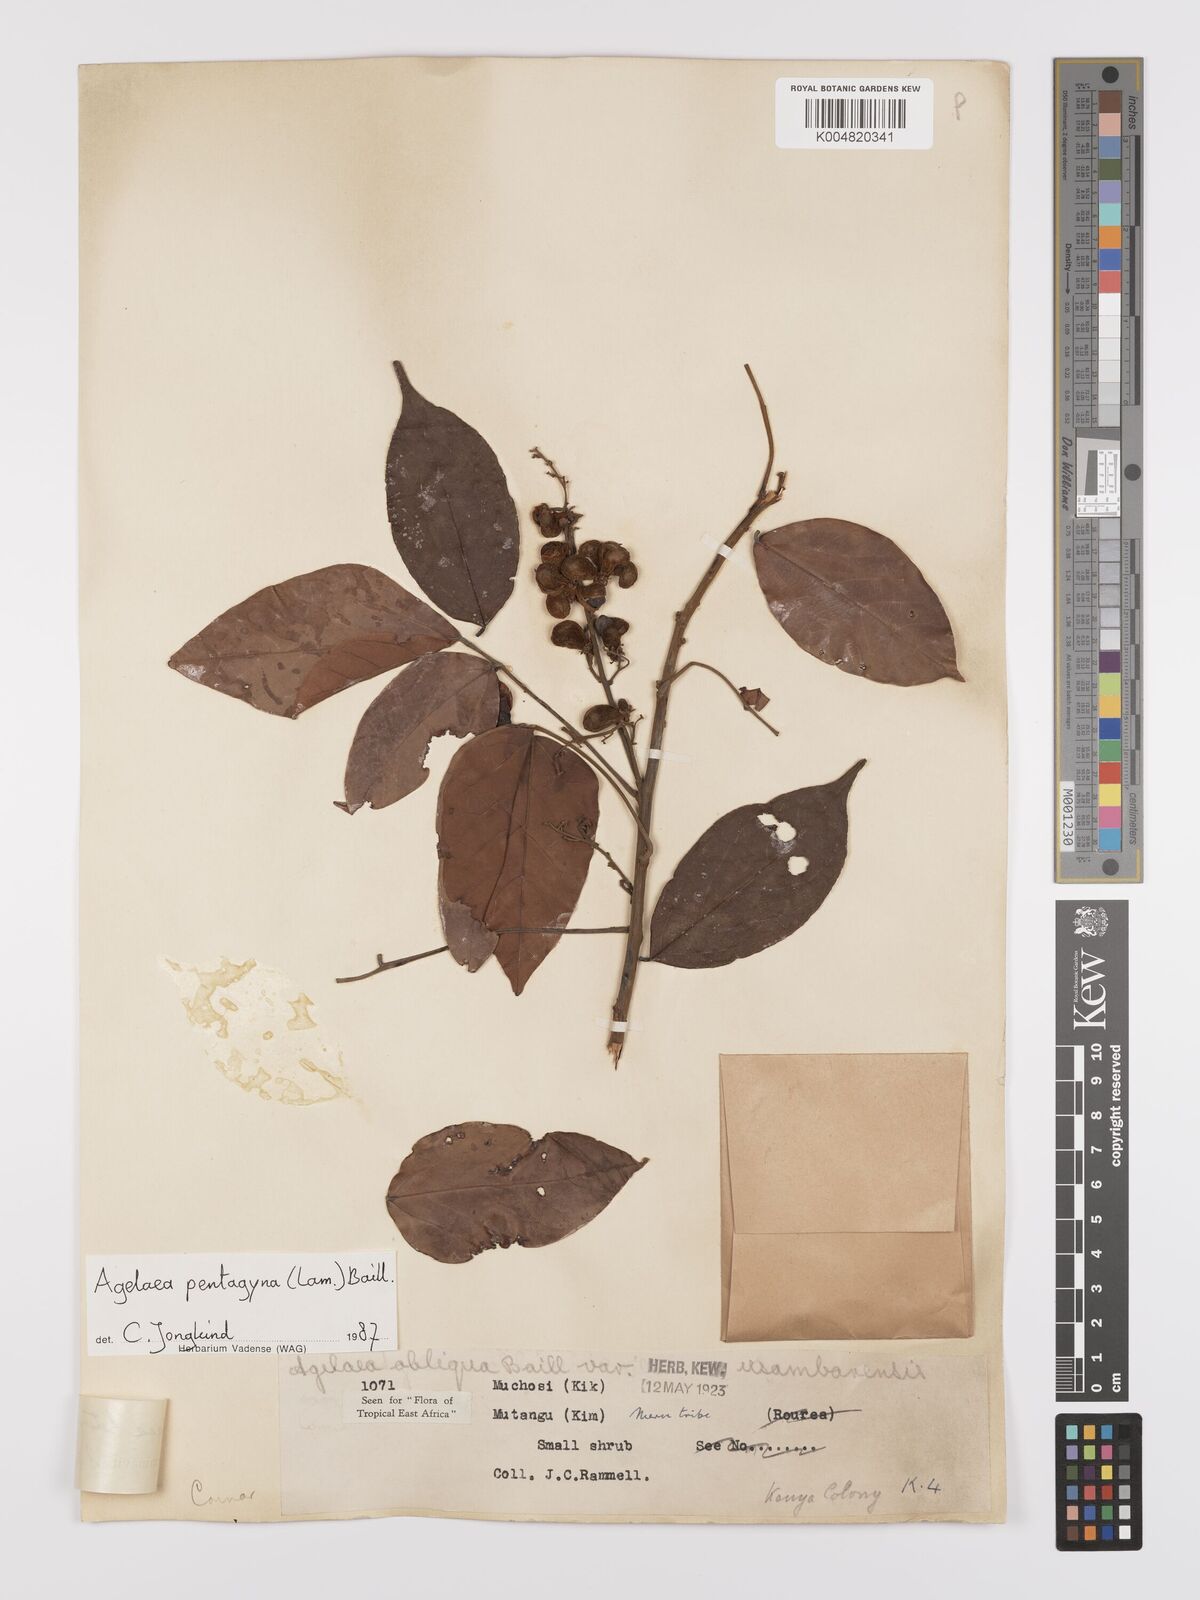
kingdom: Plantae
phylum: Tracheophyta
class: Magnoliopsida
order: Oxalidales
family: Connaraceae
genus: Agelaea
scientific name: Agelaea pentagyna
